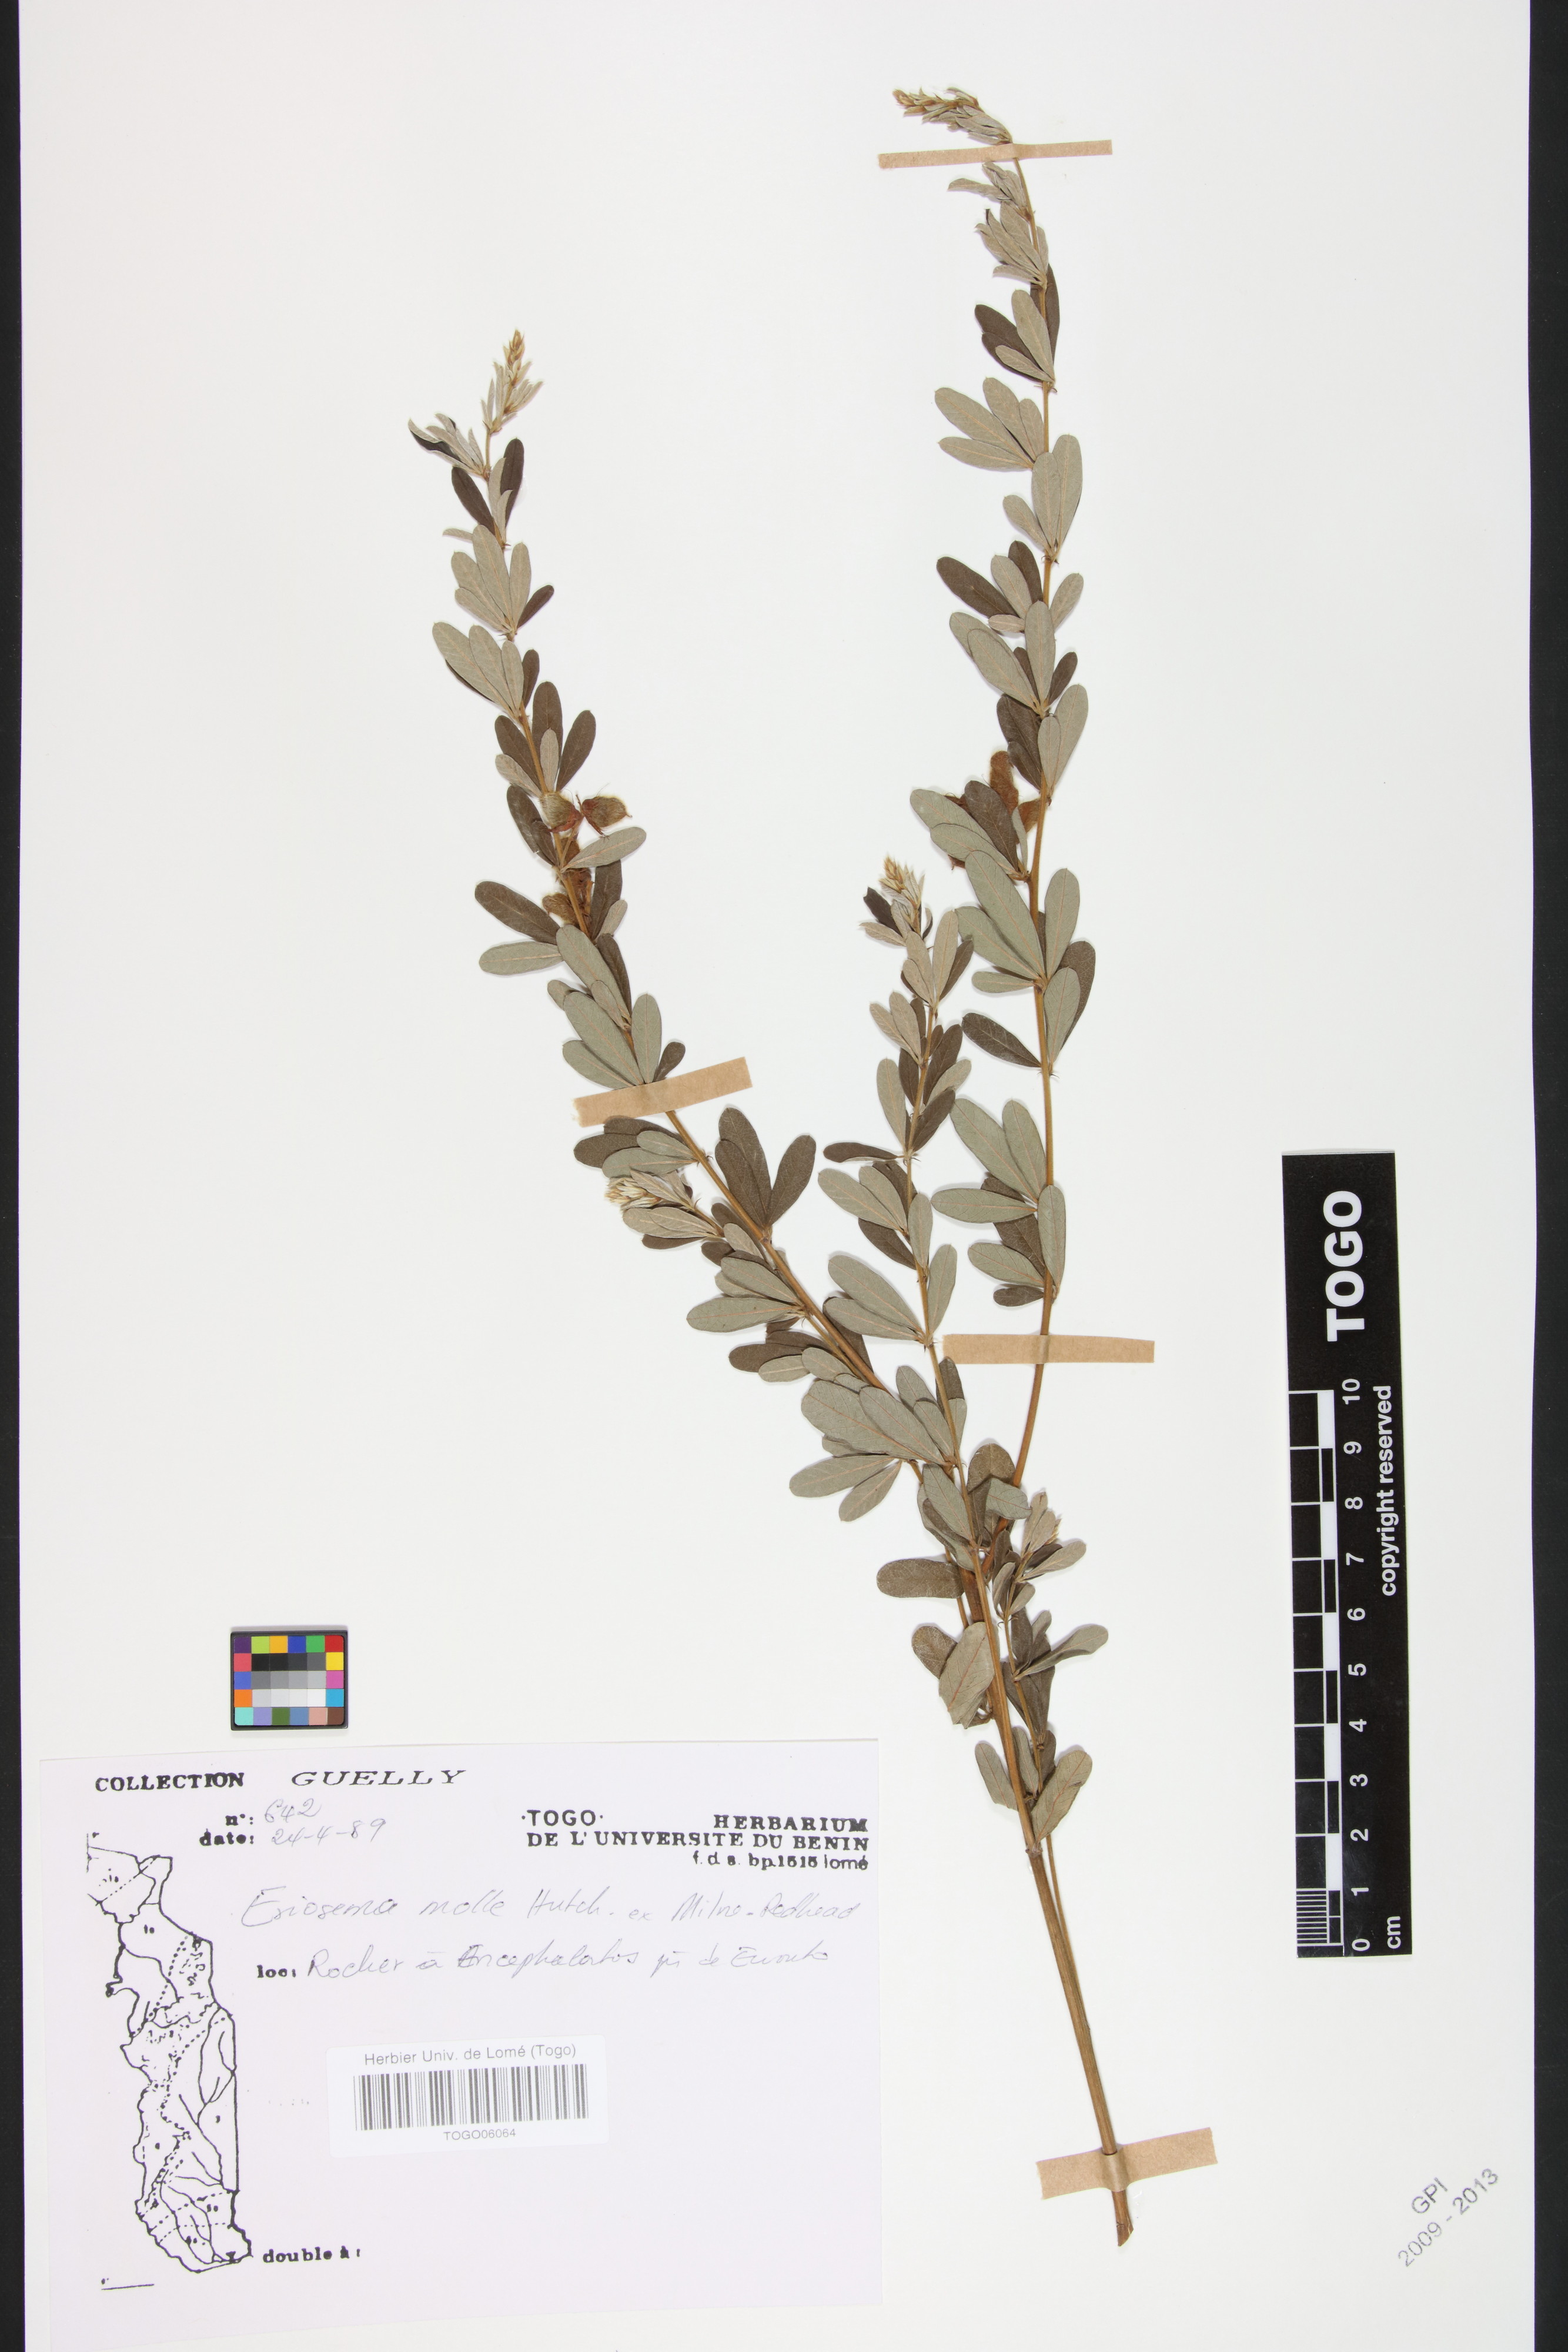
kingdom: Plantae
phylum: Tracheophyta
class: Magnoliopsida
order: Fabales
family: Fabaceae
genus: Eriosema
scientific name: Eriosema molle
